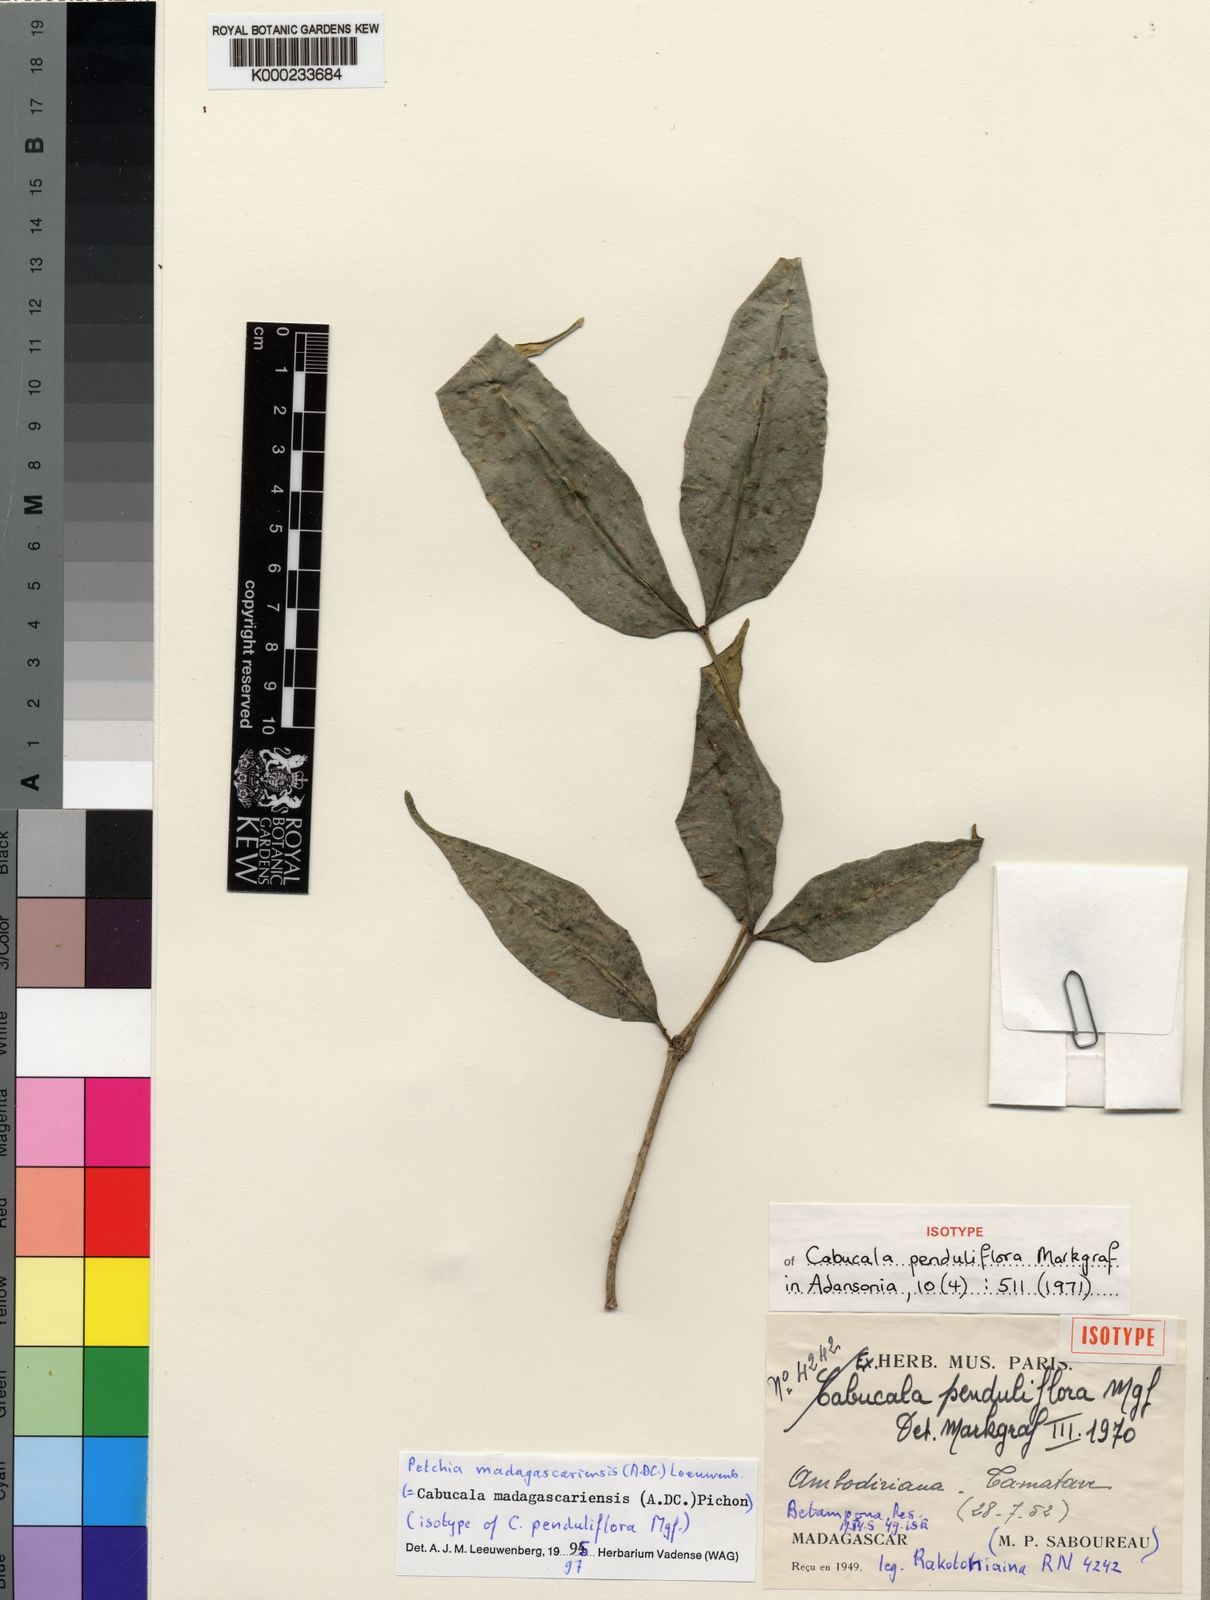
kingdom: Plantae
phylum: Tracheophyta
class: Magnoliopsida
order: Gentianales
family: Apocynaceae
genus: Petchia
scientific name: Petchia madagascariensis
